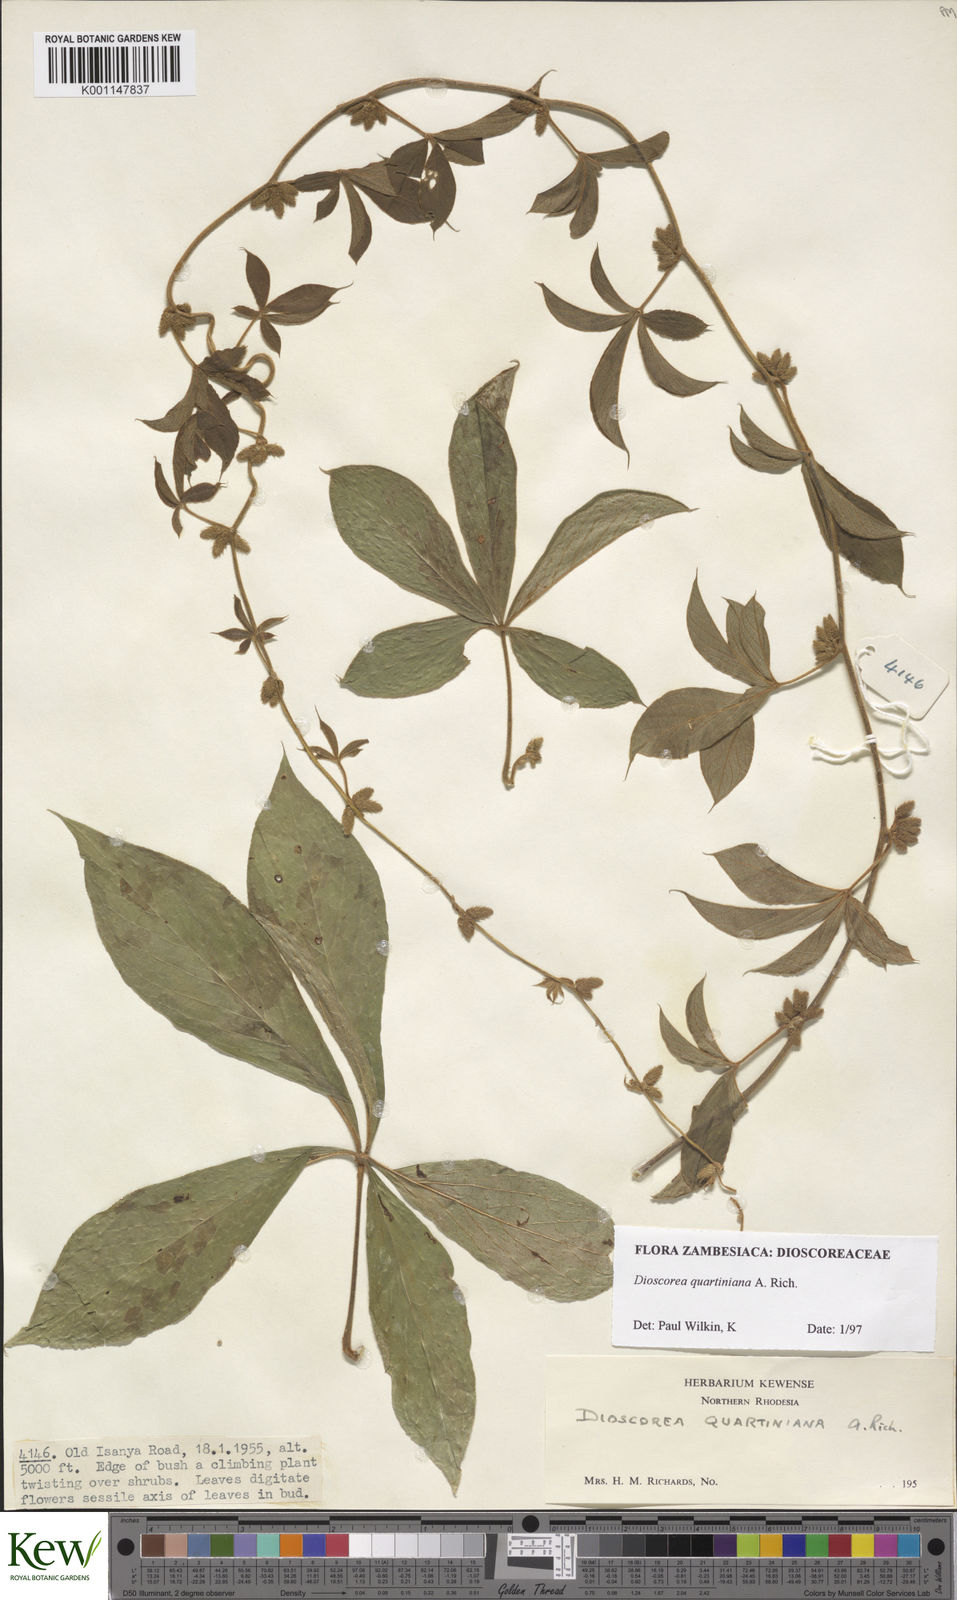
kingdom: Plantae
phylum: Tracheophyta
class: Liliopsida
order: Dioscoreales
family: Dioscoreaceae
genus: Dioscorea
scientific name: Dioscorea quartiniana
